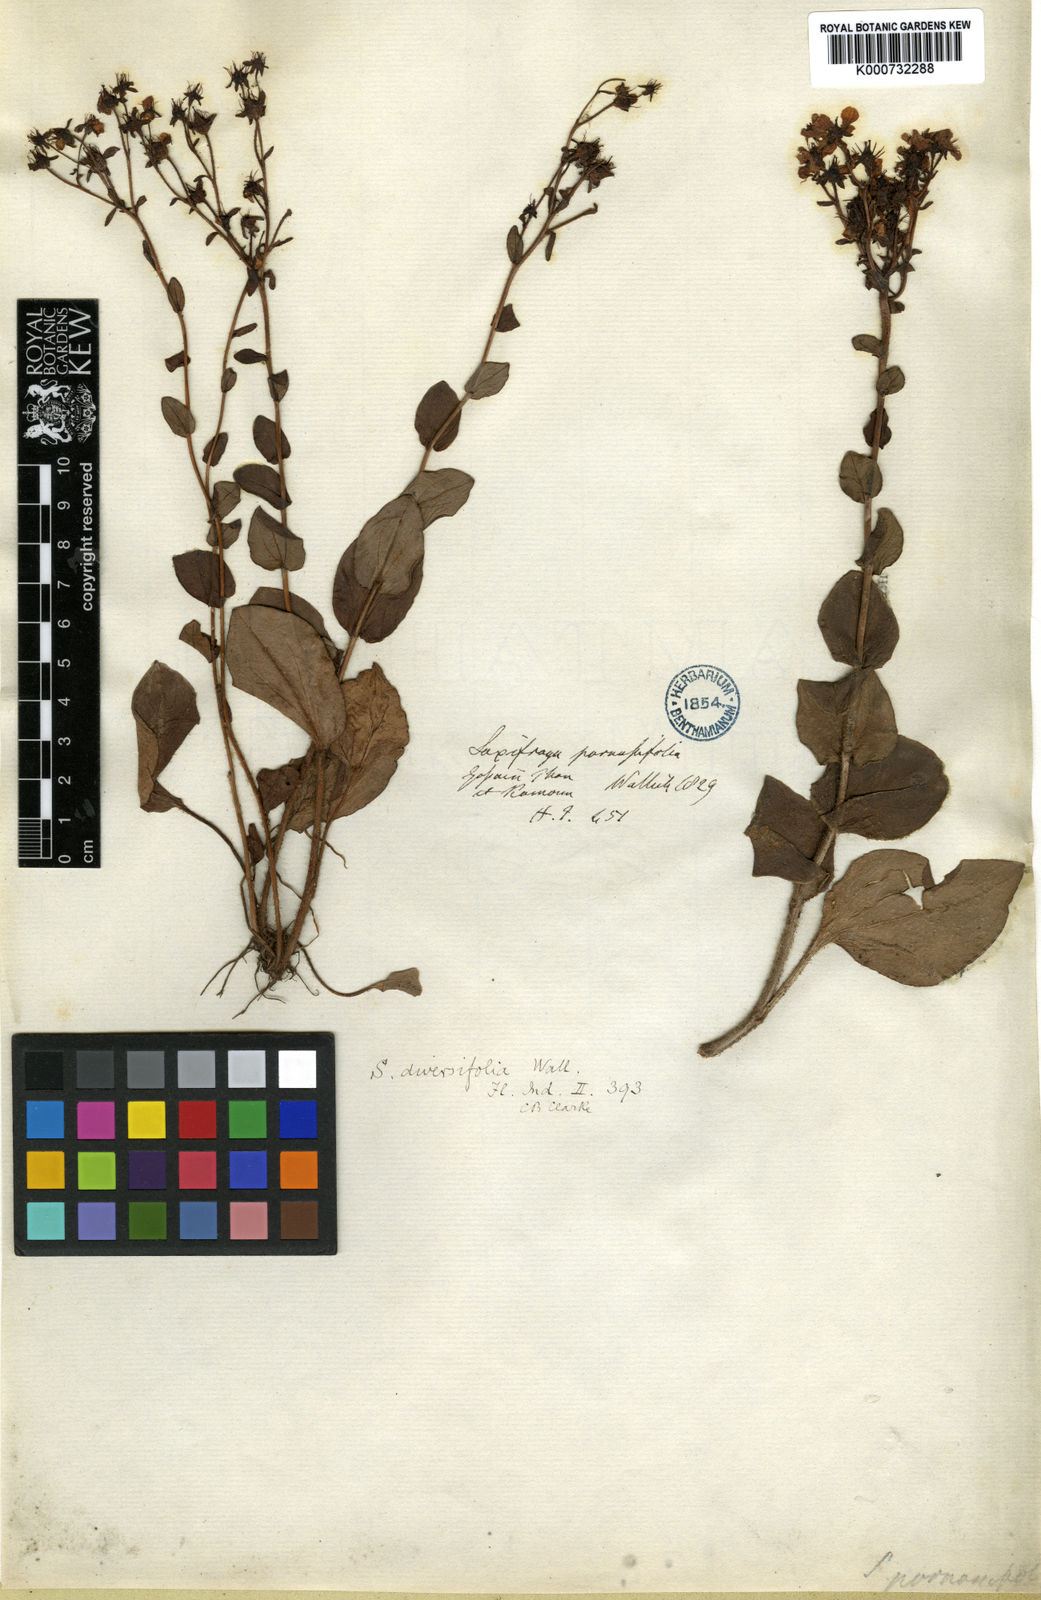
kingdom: Plantae
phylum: Tracheophyta
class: Magnoliopsida
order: Saxifragales
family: Saxifragaceae
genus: Saxifraga
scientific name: Saxifraga diversifolia
